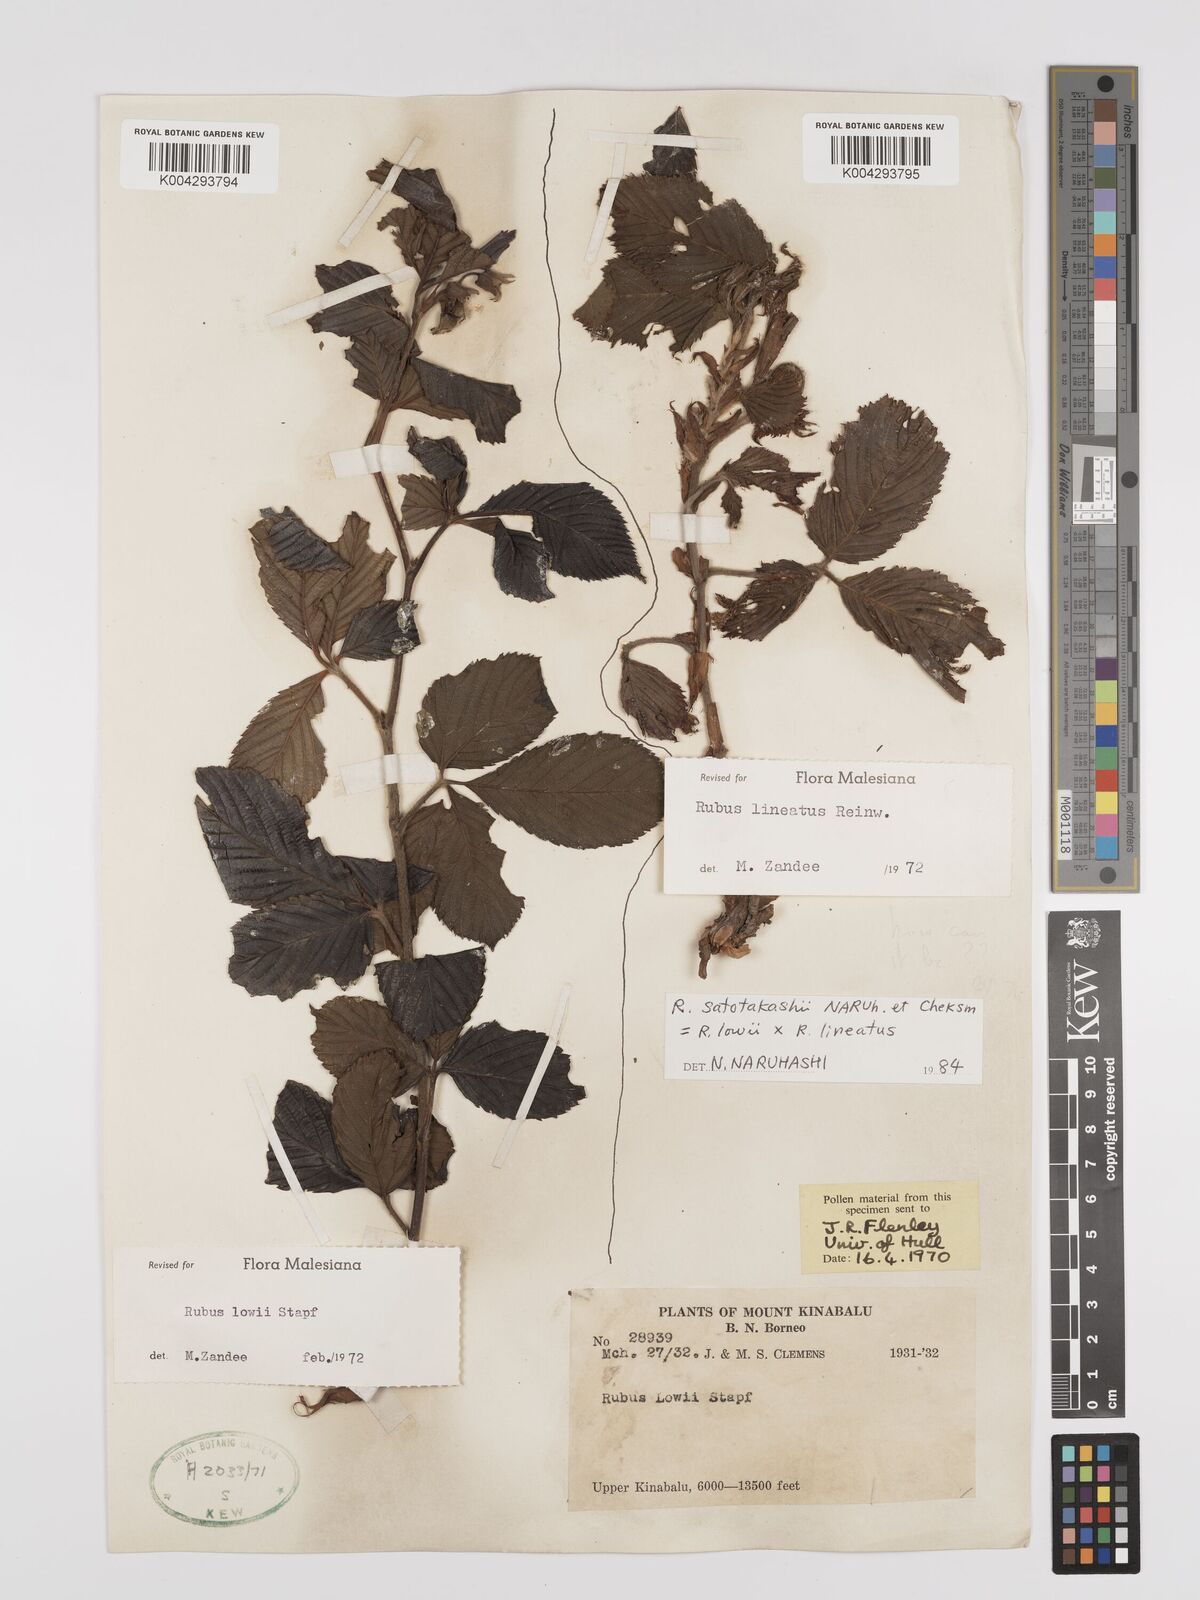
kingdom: Plantae
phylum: Tracheophyta
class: Magnoliopsida
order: Rosales
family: Rosaceae
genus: Rubus
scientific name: Rubus lowii
